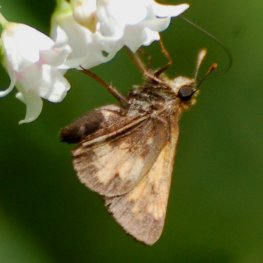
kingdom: Animalia
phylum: Arthropoda
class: Insecta
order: Lepidoptera
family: Hesperiidae
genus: Lon
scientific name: Lon hobomok
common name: Hobomok Skipper
